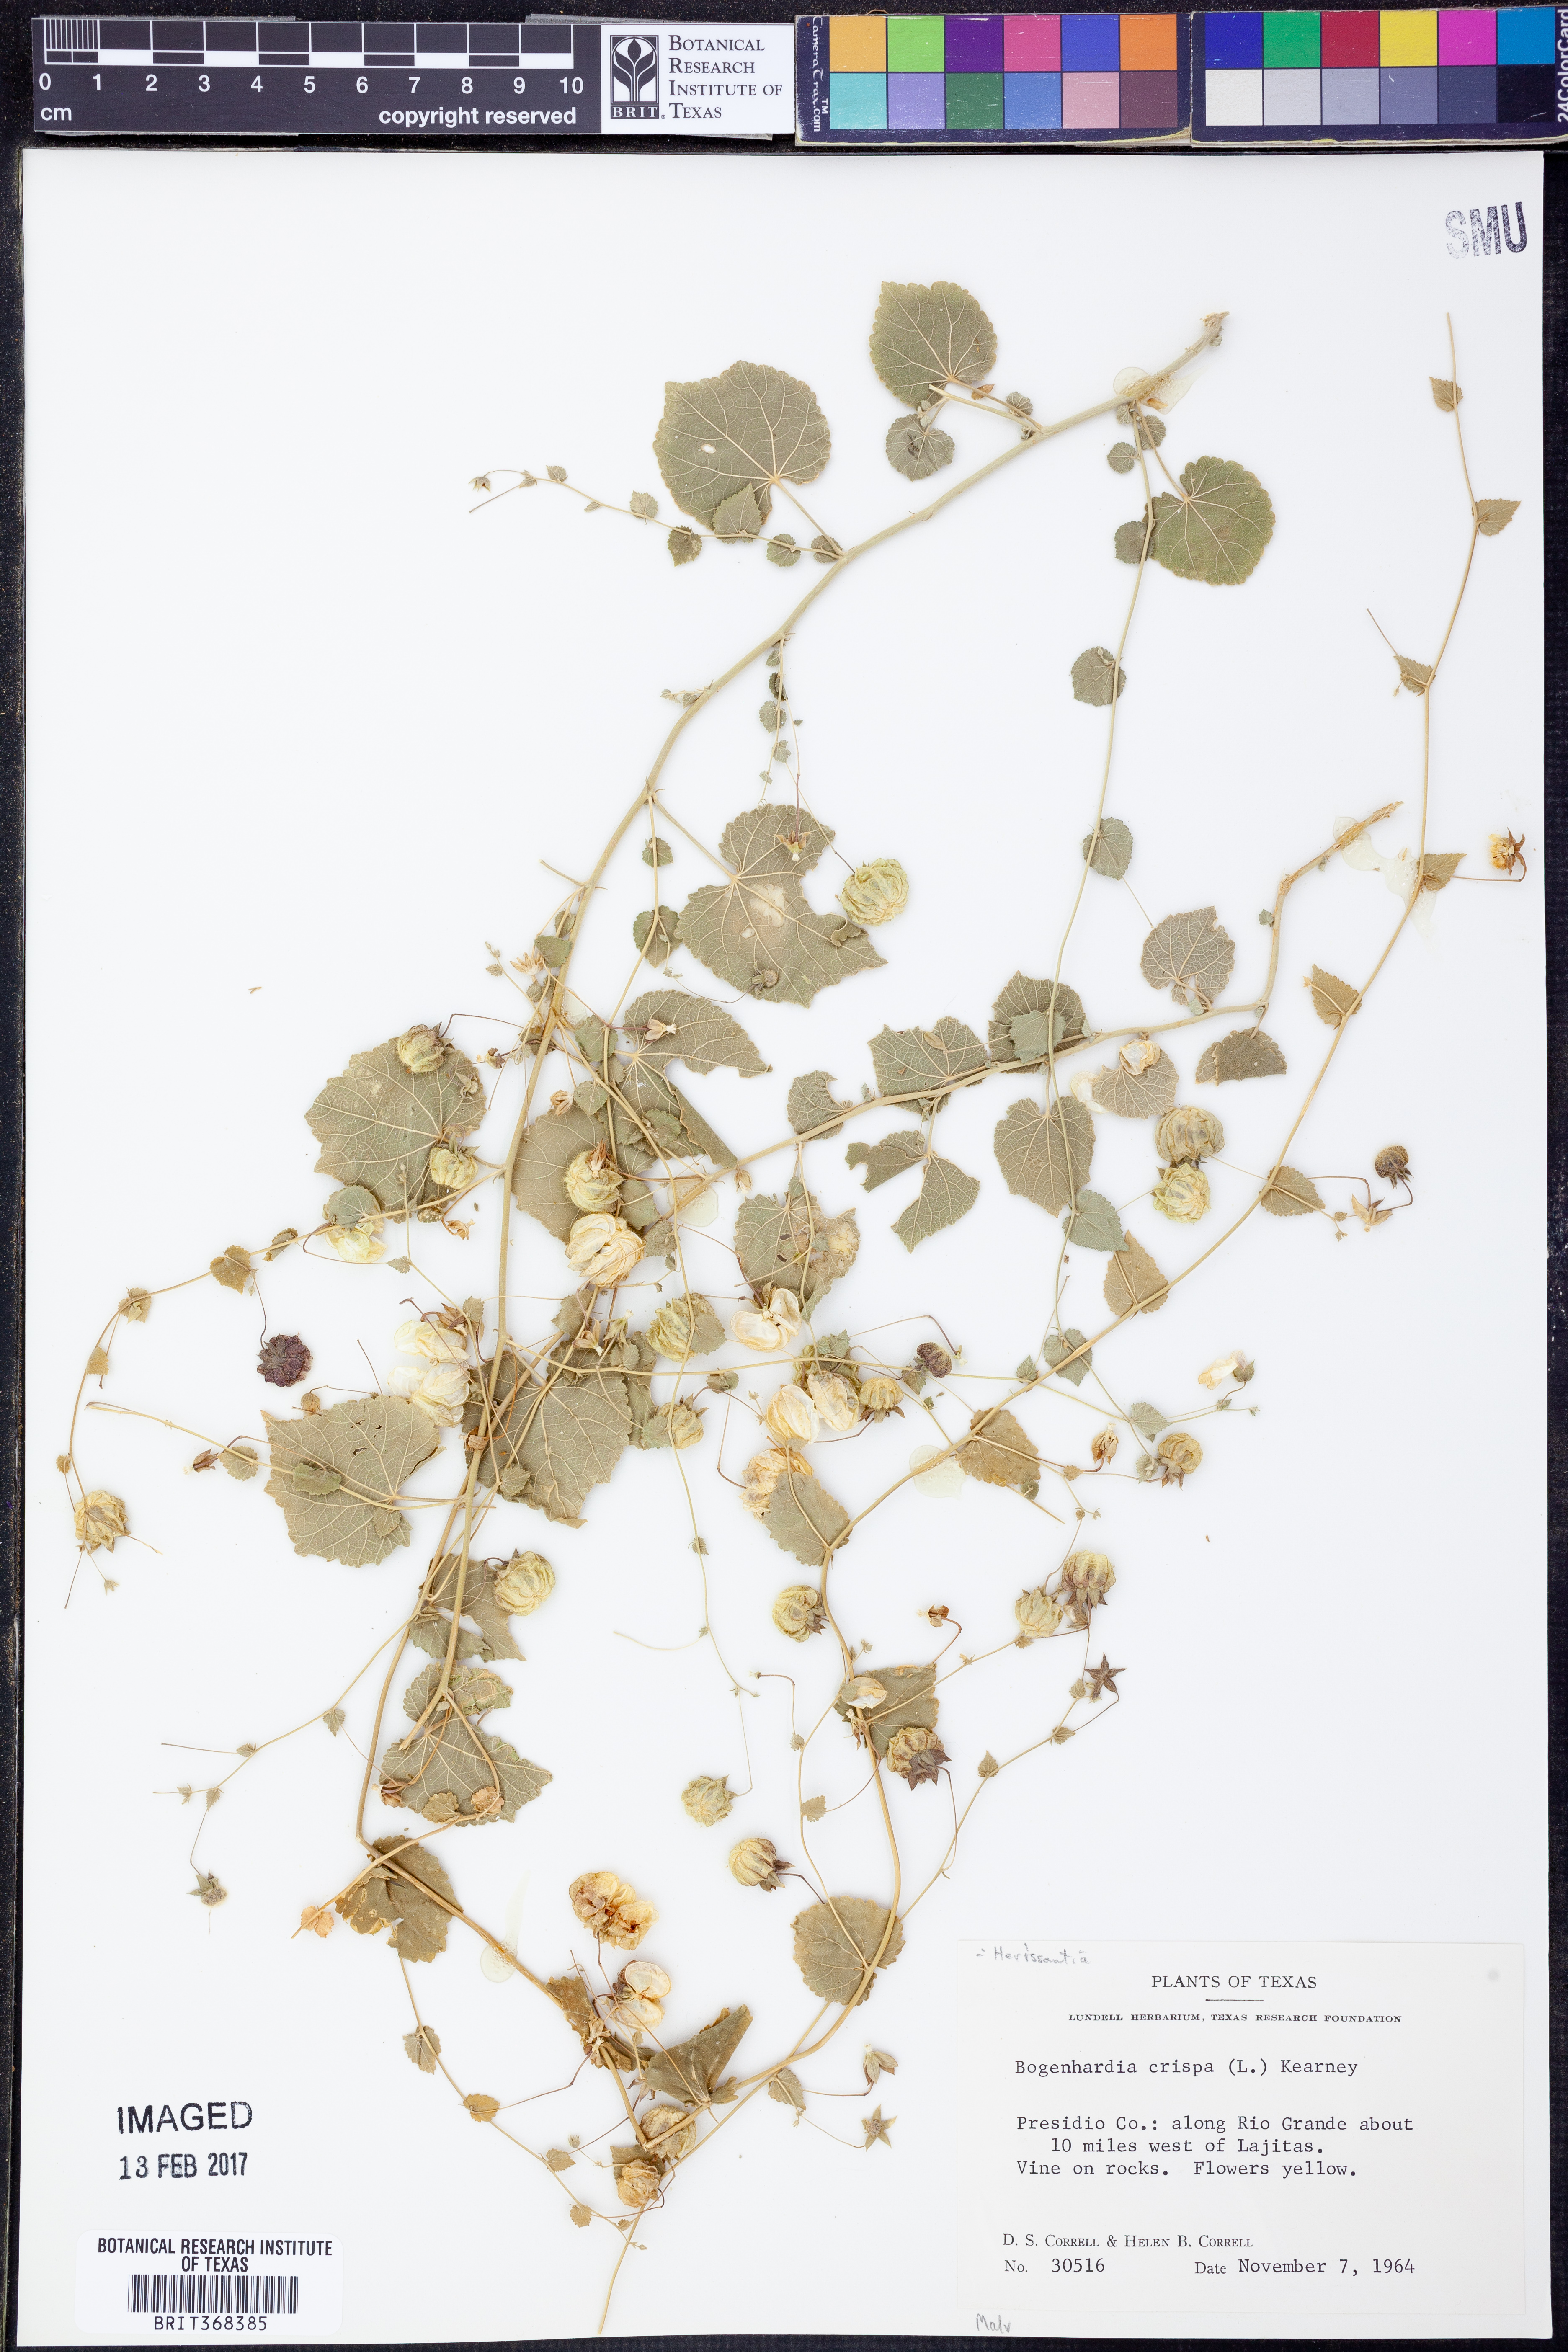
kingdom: Plantae
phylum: Tracheophyta
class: Magnoliopsida
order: Malvales
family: Malvaceae
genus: Herissantia
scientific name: Herissantia crispa
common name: Bladdermallow
